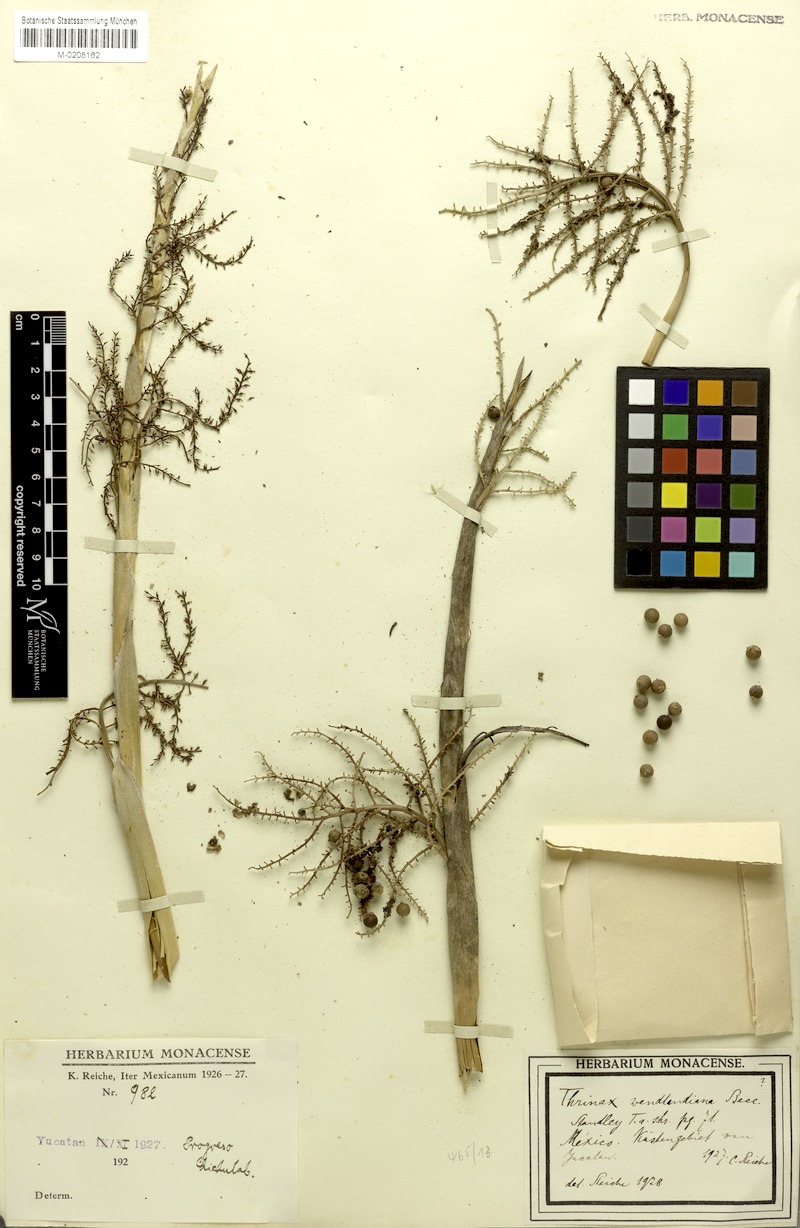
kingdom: Plantae
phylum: Tracheophyta
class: Liliopsida
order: Arecales
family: Arecaceae
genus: Thrinax
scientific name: Thrinax radiata
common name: Florida thatch
